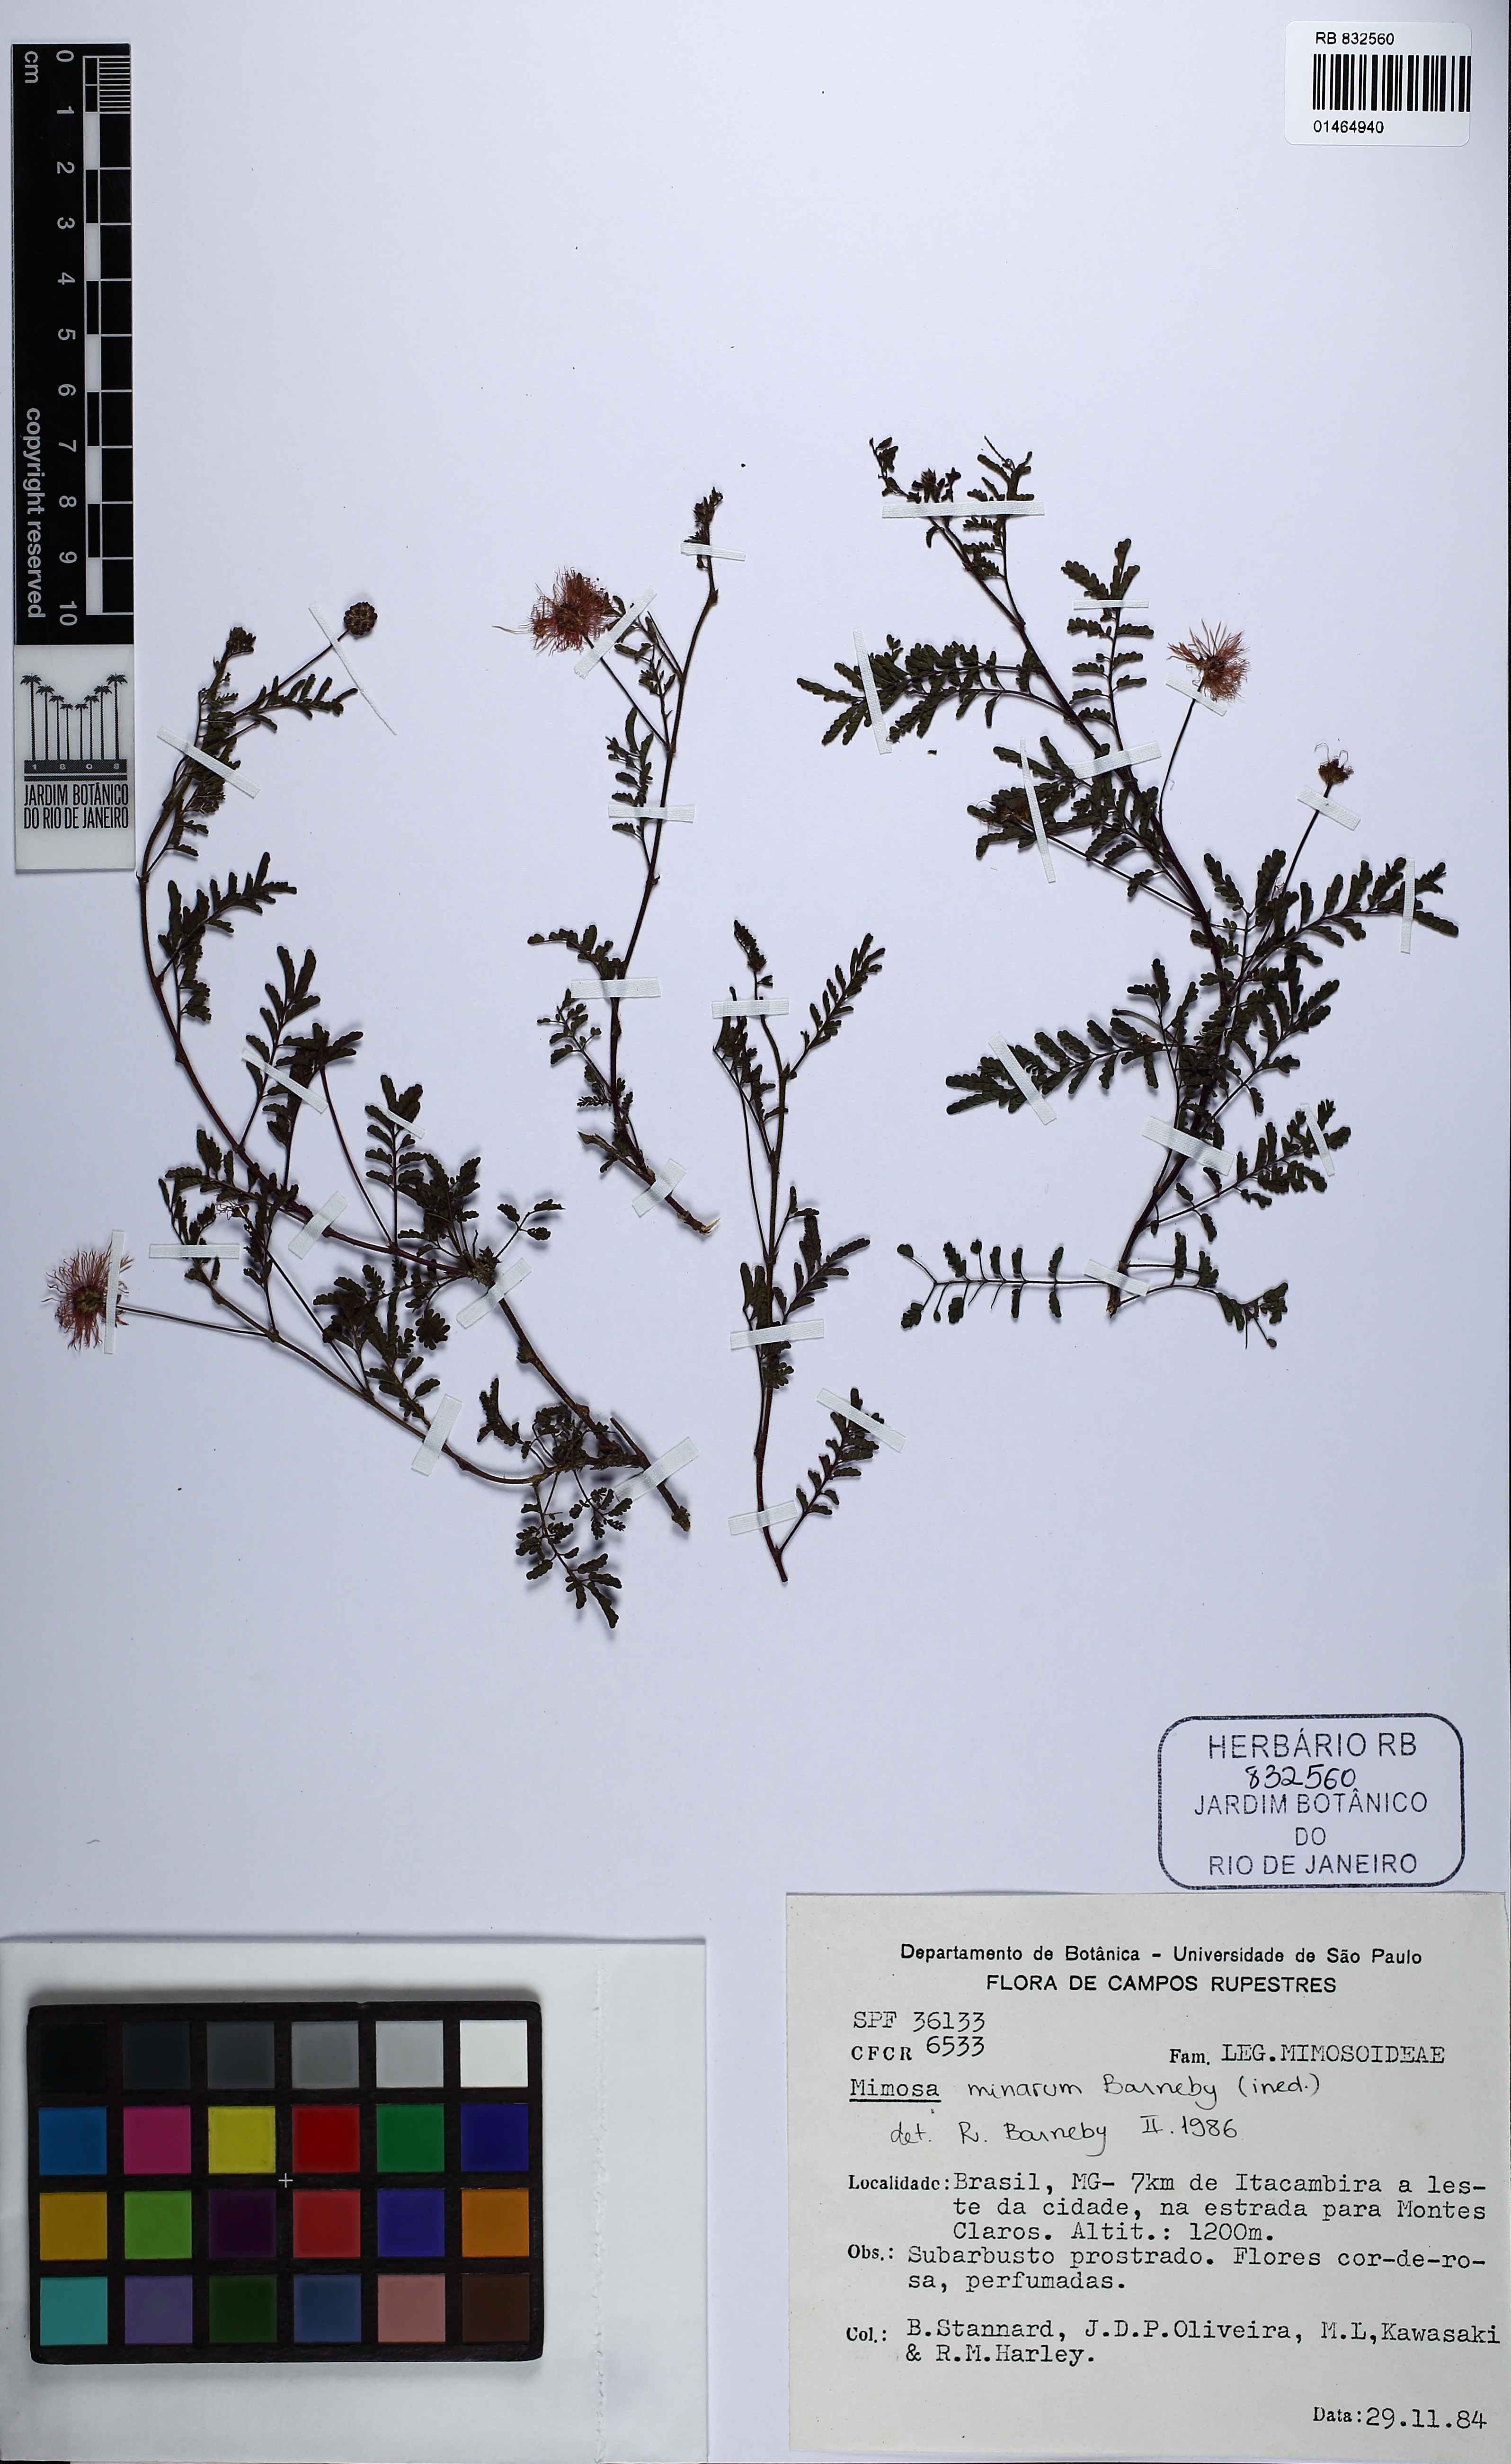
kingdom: Plantae
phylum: Tracheophyta
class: Magnoliopsida
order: Fabales
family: Fabaceae
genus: Mimosa
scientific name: Mimosa minarum
